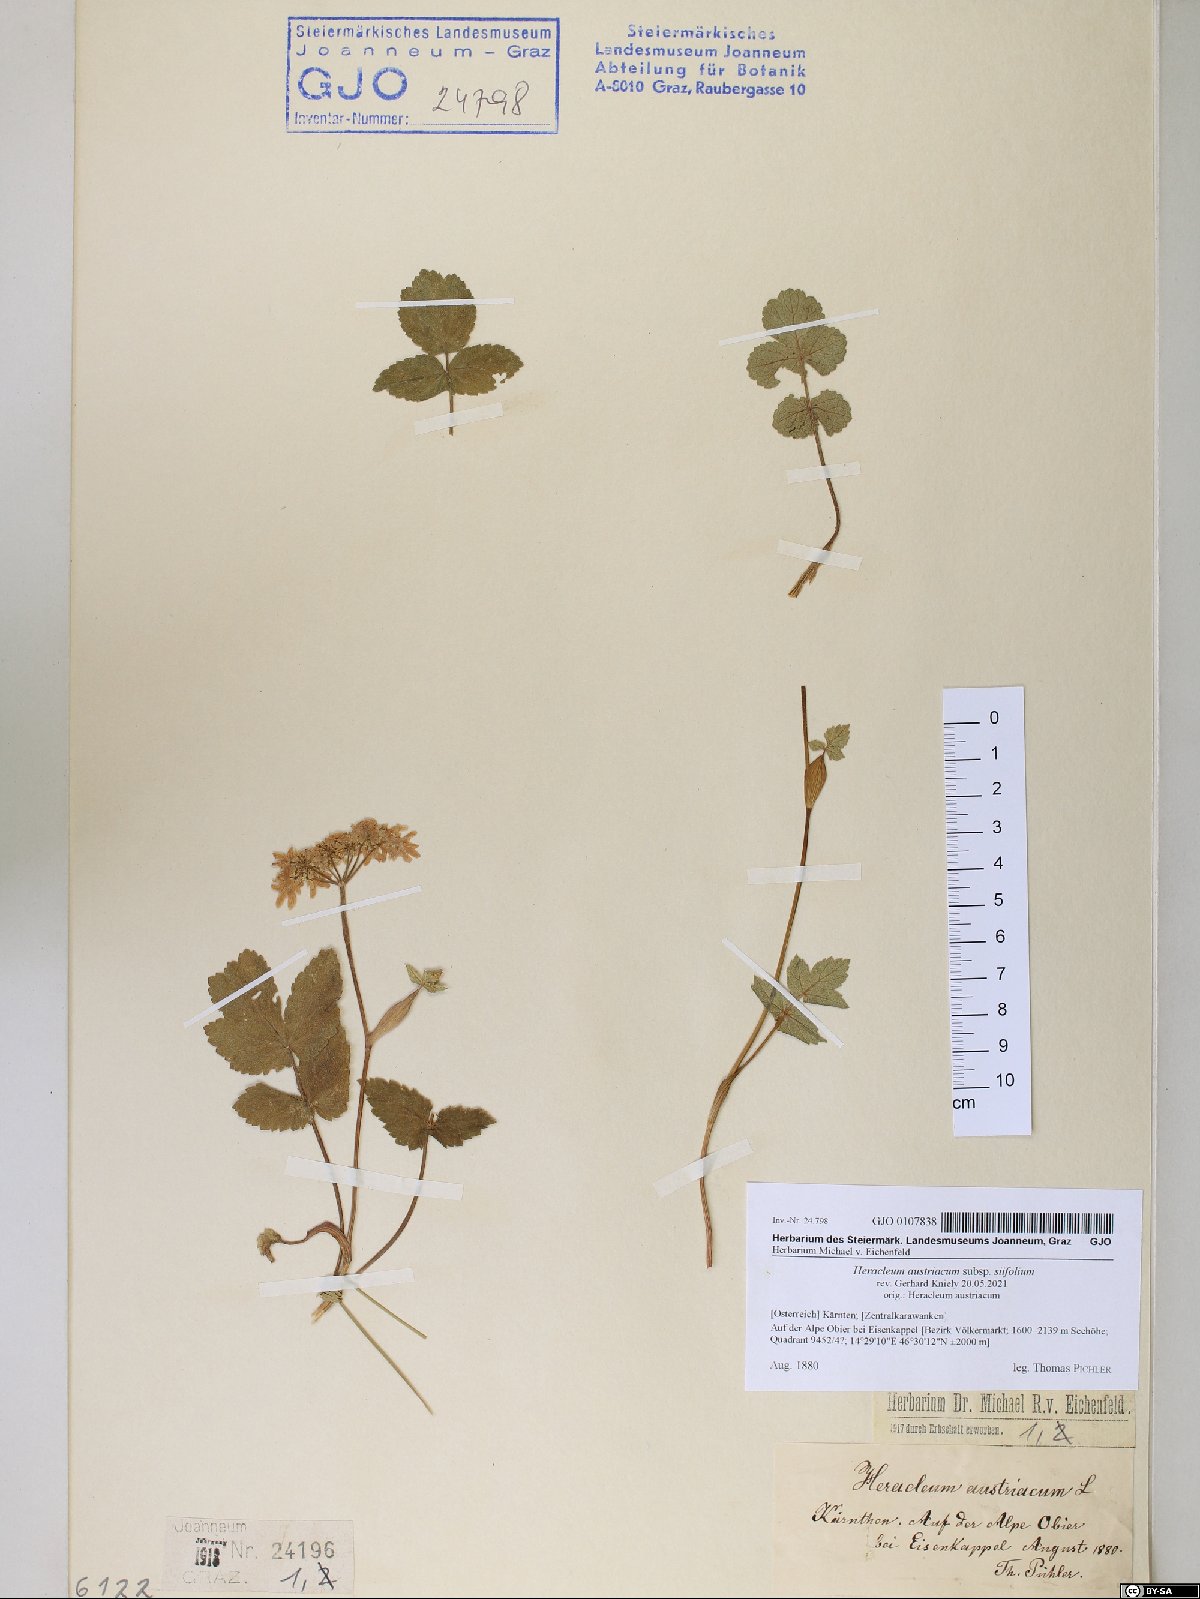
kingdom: Plantae
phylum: Tracheophyta
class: Magnoliopsida
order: Apiales
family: Apiaceae
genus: Heracleum
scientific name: Heracleum austriacum
